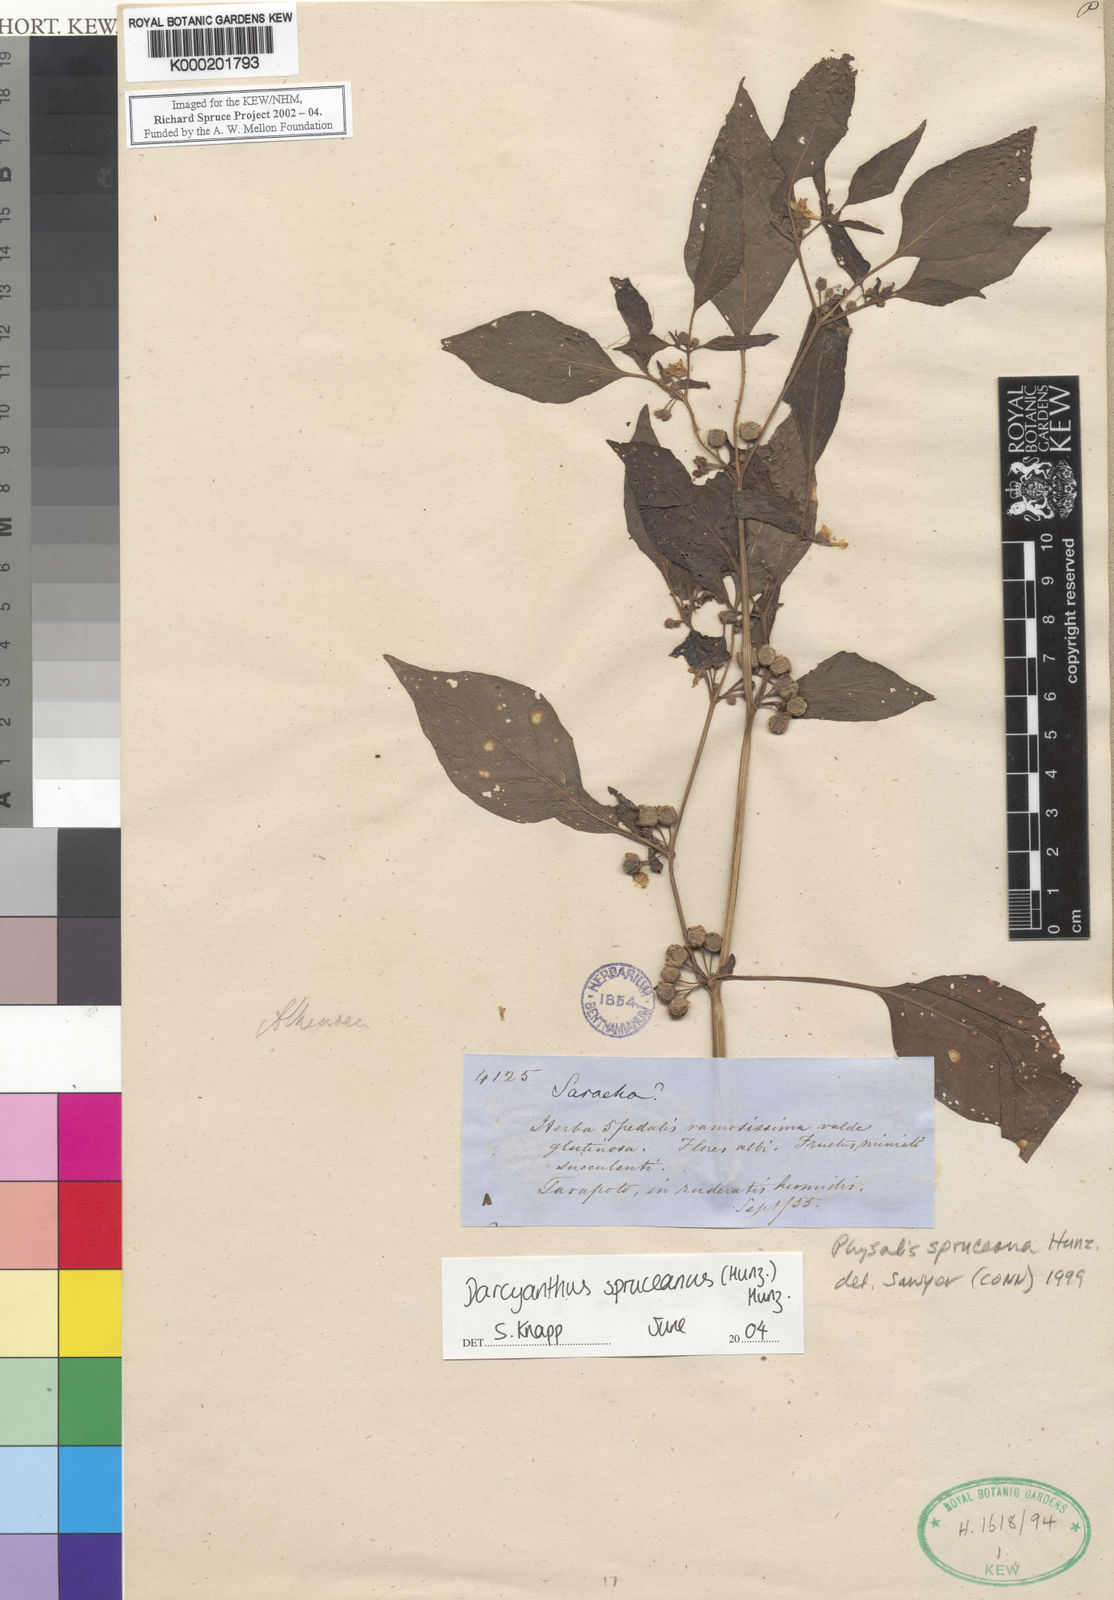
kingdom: Plantae
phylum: Tracheophyta
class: Magnoliopsida
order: Solanales
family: Solanaceae
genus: Darcyanthus
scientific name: Darcyanthus
